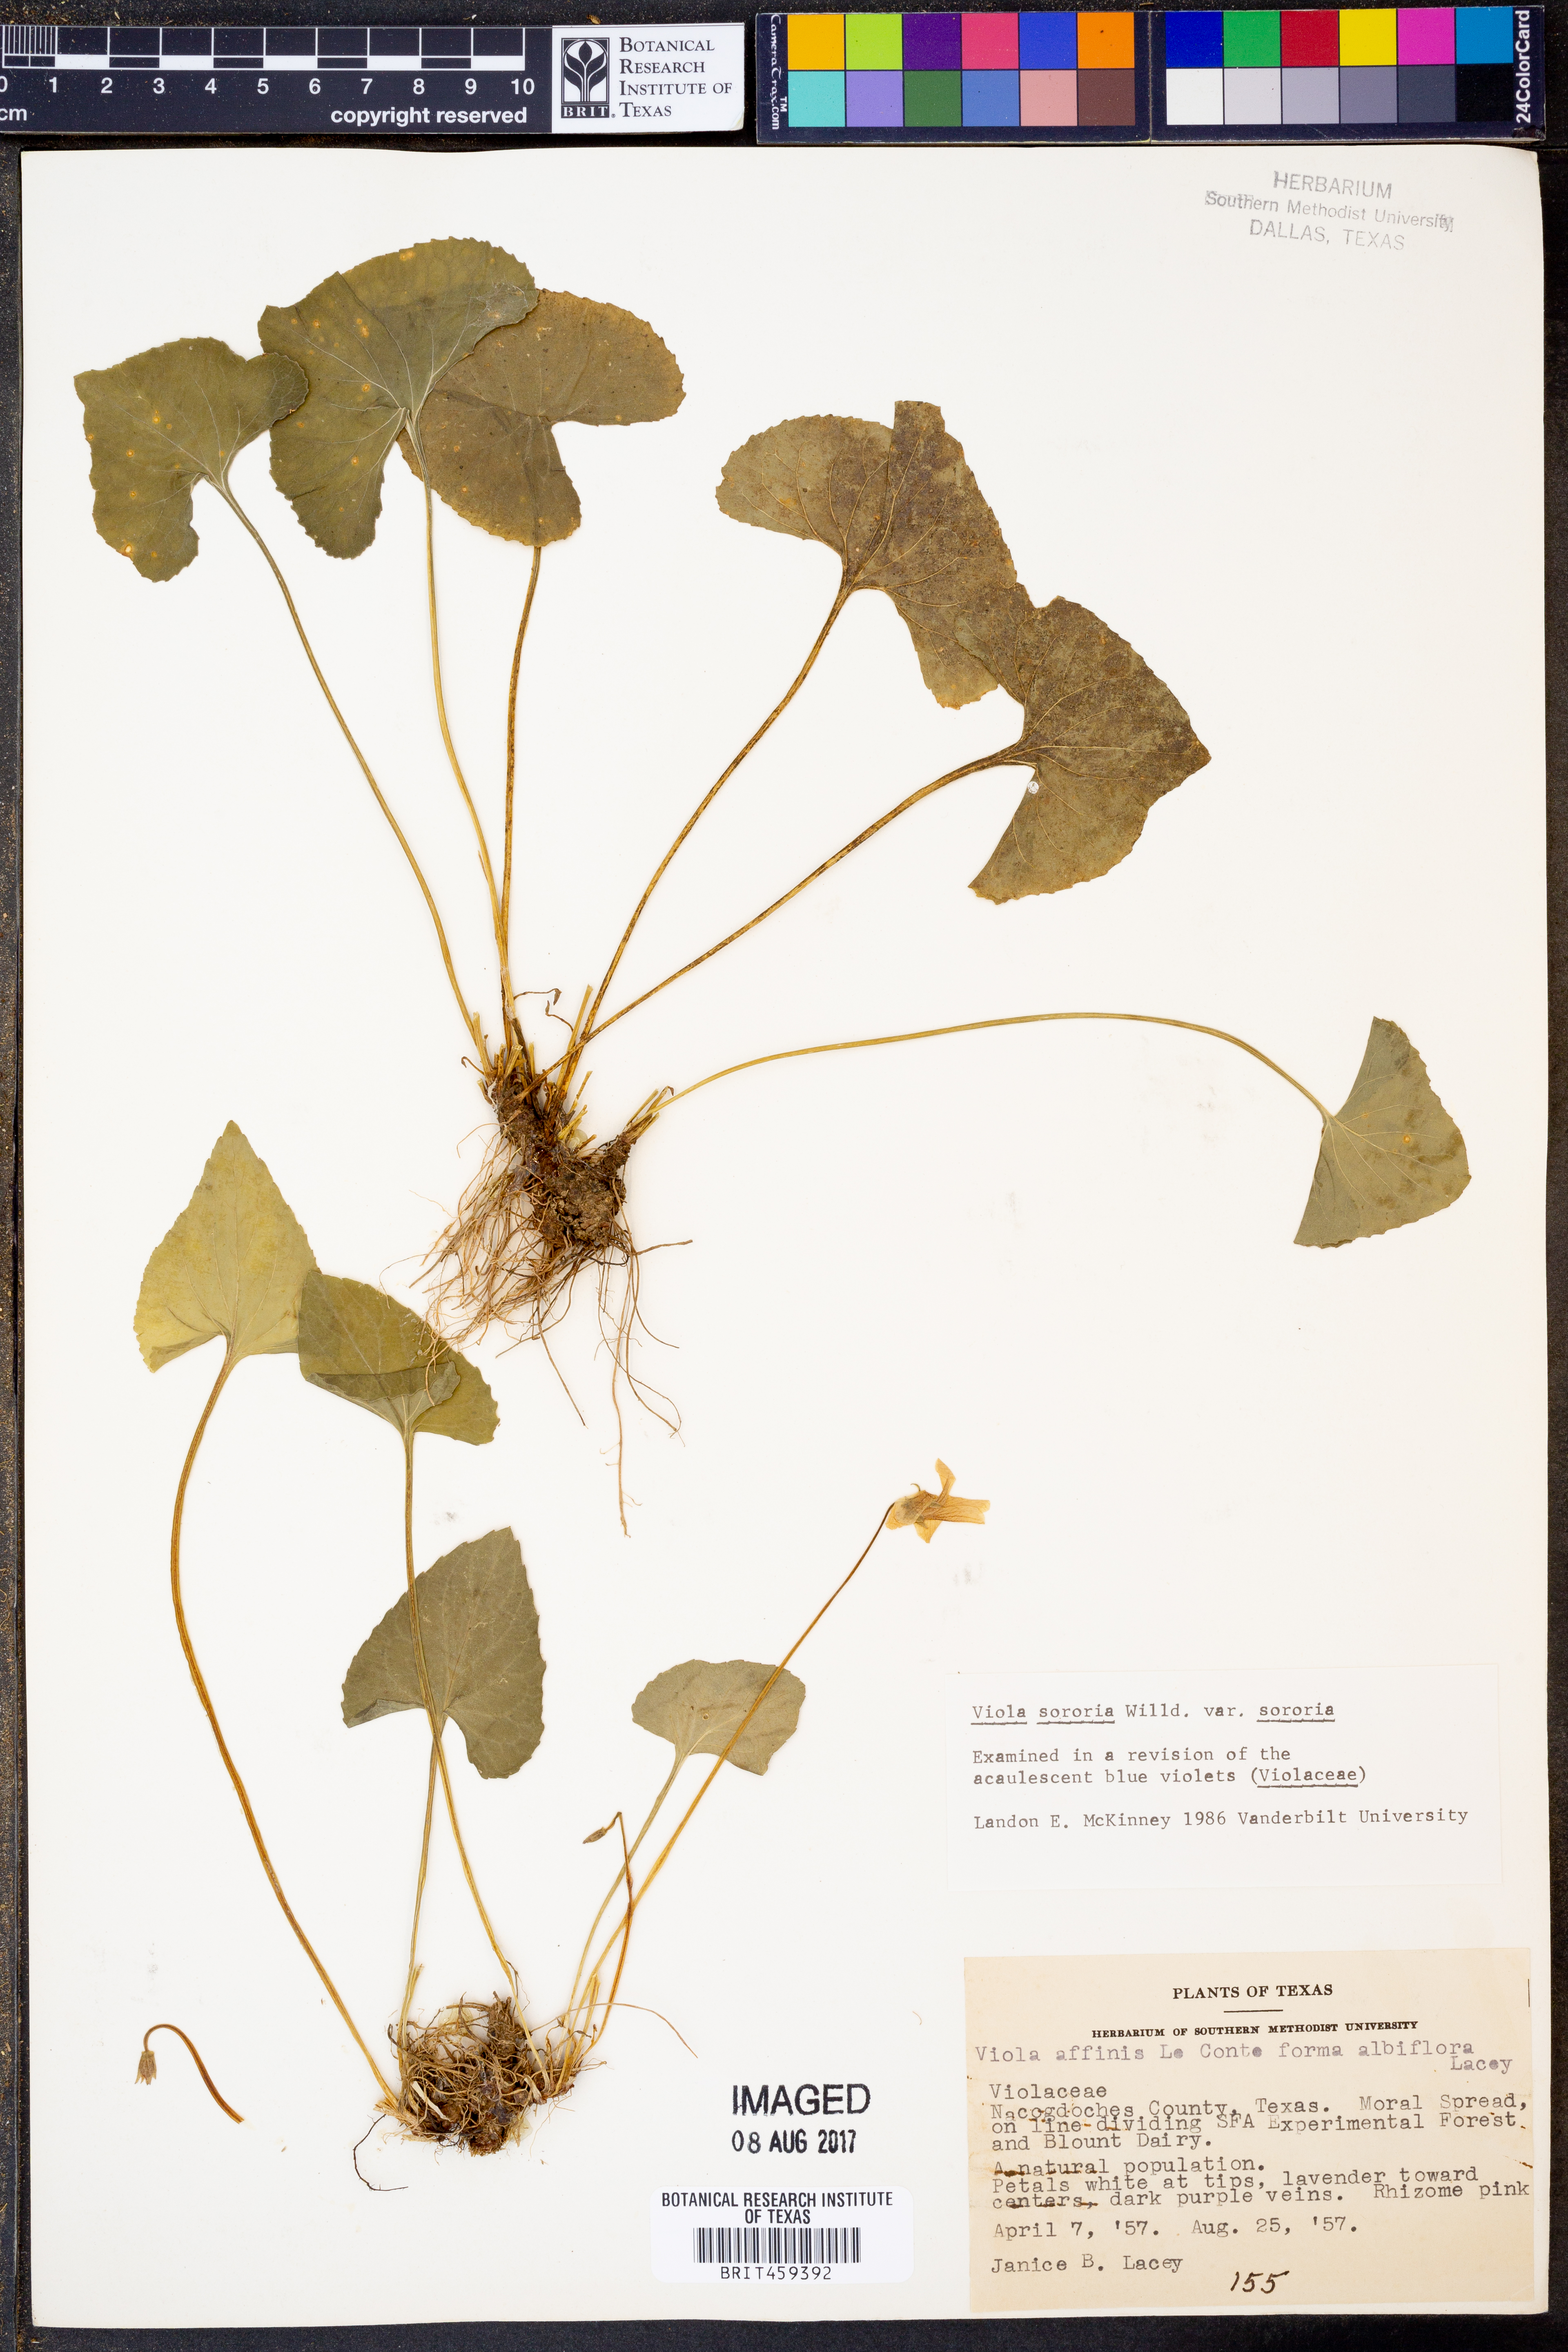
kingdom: Plantae
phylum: Tracheophyta
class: Magnoliopsida
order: Malpighiales
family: Violaceae
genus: Viola
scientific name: Viola sororia
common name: Dooryard violet
